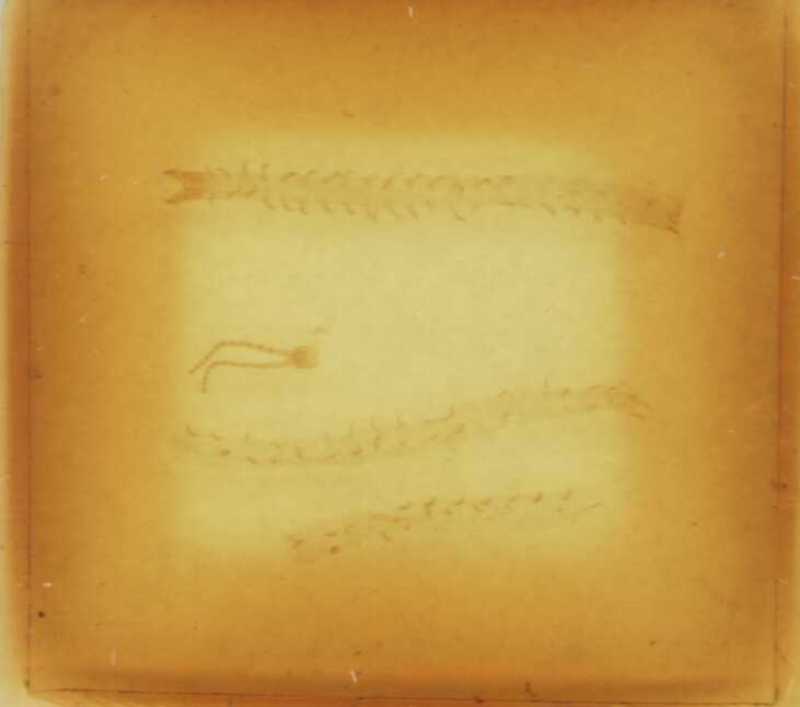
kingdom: Animalia
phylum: Arthropoda
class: Chilopoda
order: Geophilomorpha
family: Geophilidae
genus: Geophilus
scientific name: Geophilus fucorum
